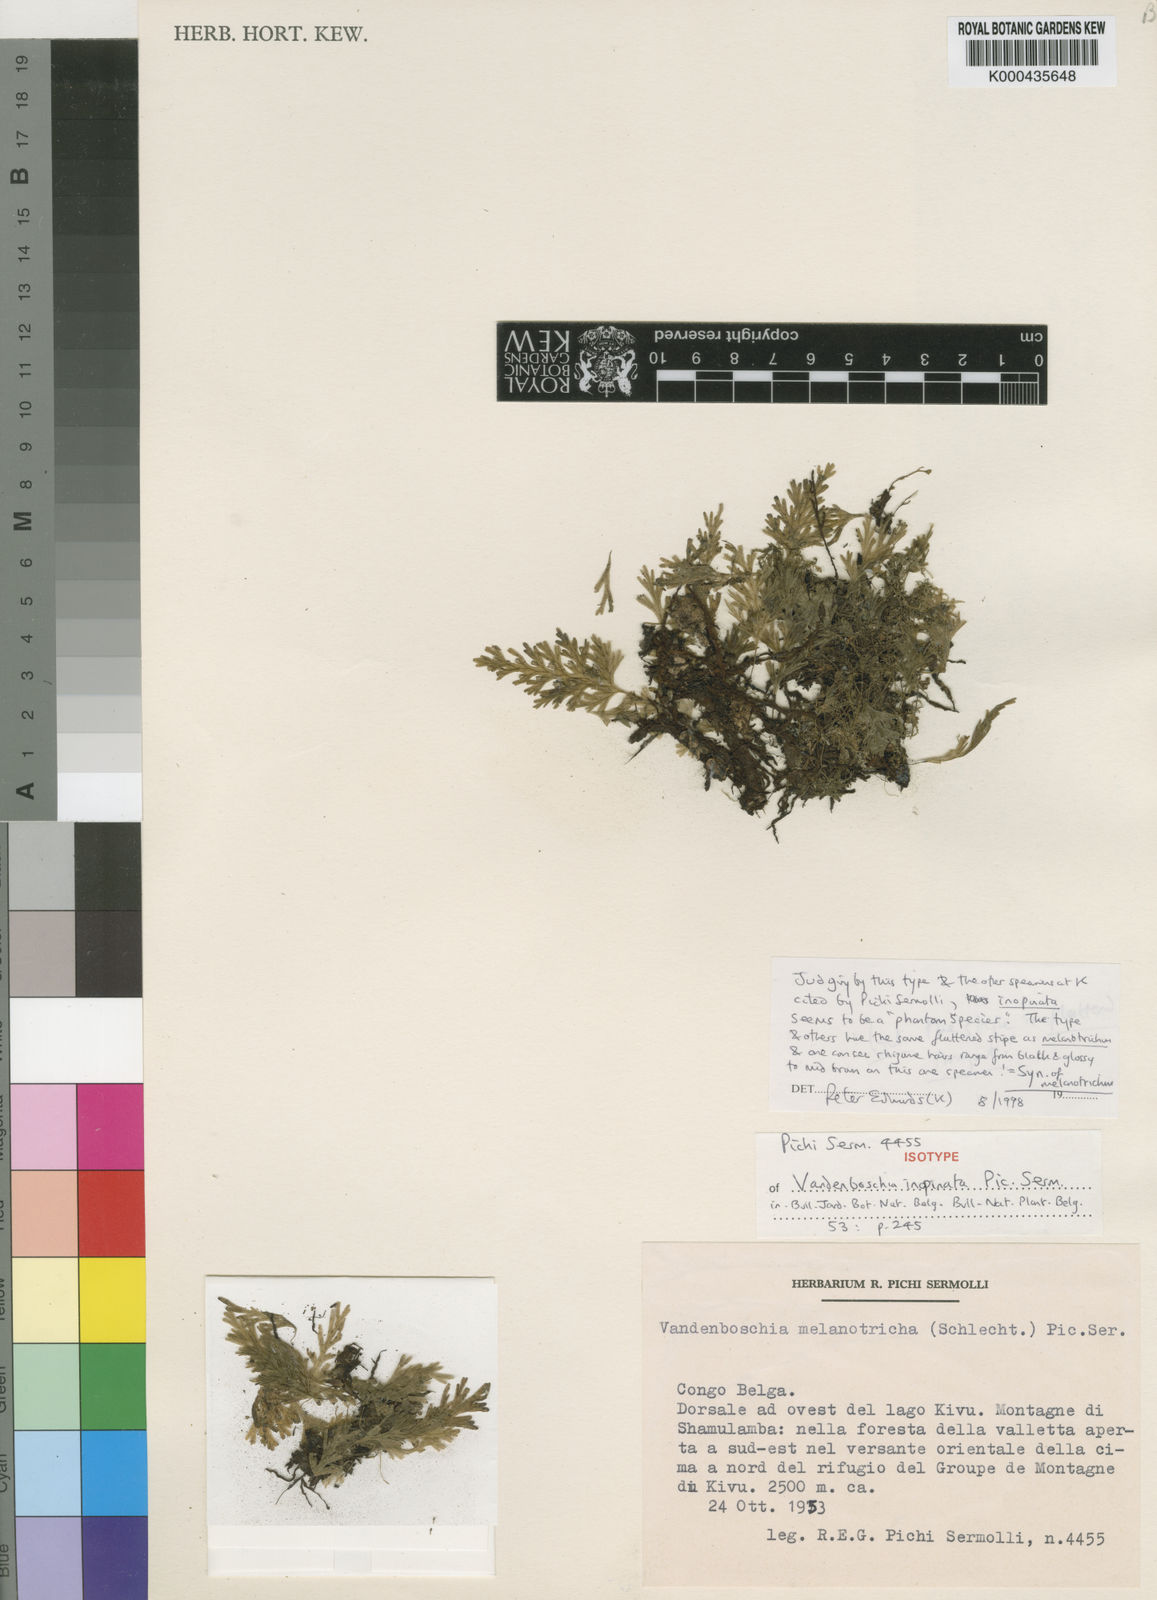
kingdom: Plantae
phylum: Tracheophyta
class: Polypodiopsida
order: Hymenophyllales
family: Hymenophyllaceae
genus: Crepidomanes
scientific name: Crepidomanes melanotrichum
